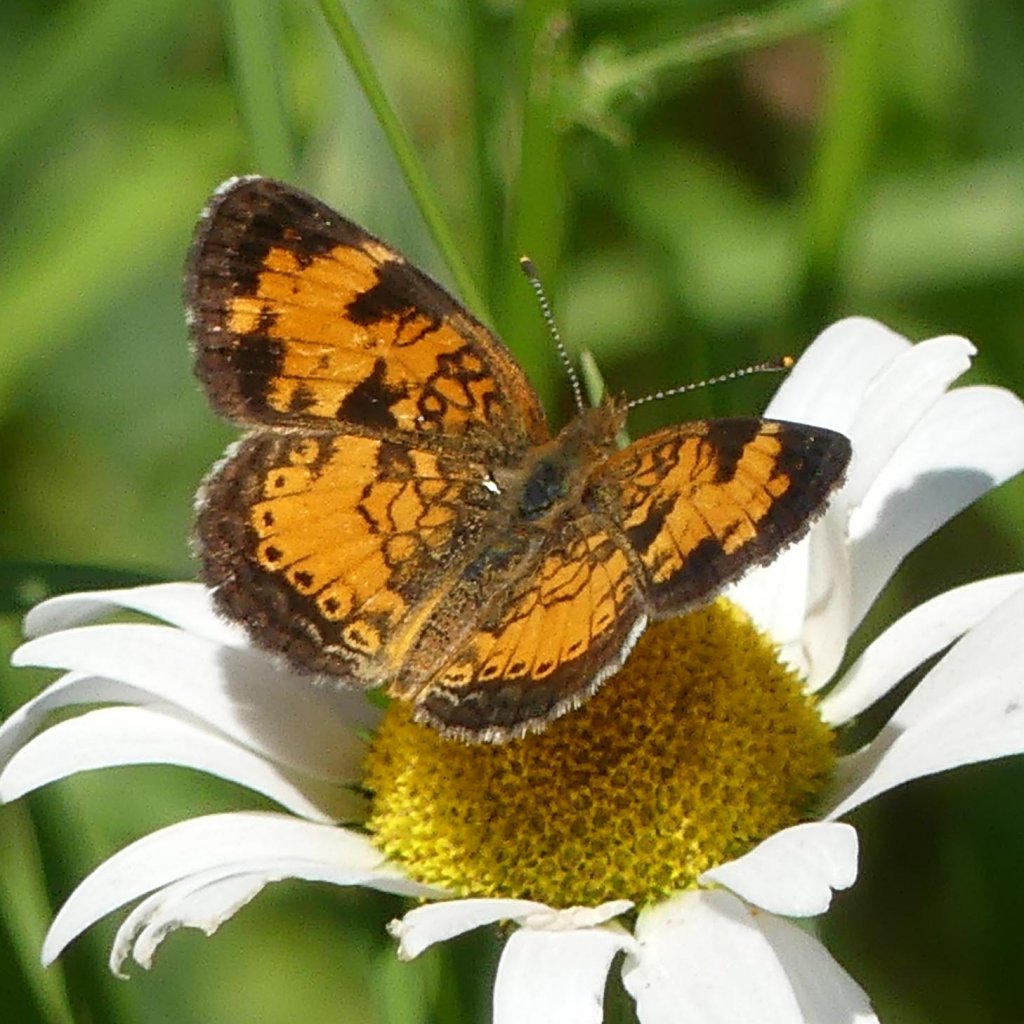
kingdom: Animalia
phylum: Arthropoda
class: Insecta
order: Lepidoptera
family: Nymphalidae
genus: Phyciodes
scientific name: Phyciodes tharos
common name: Northern Crescent
